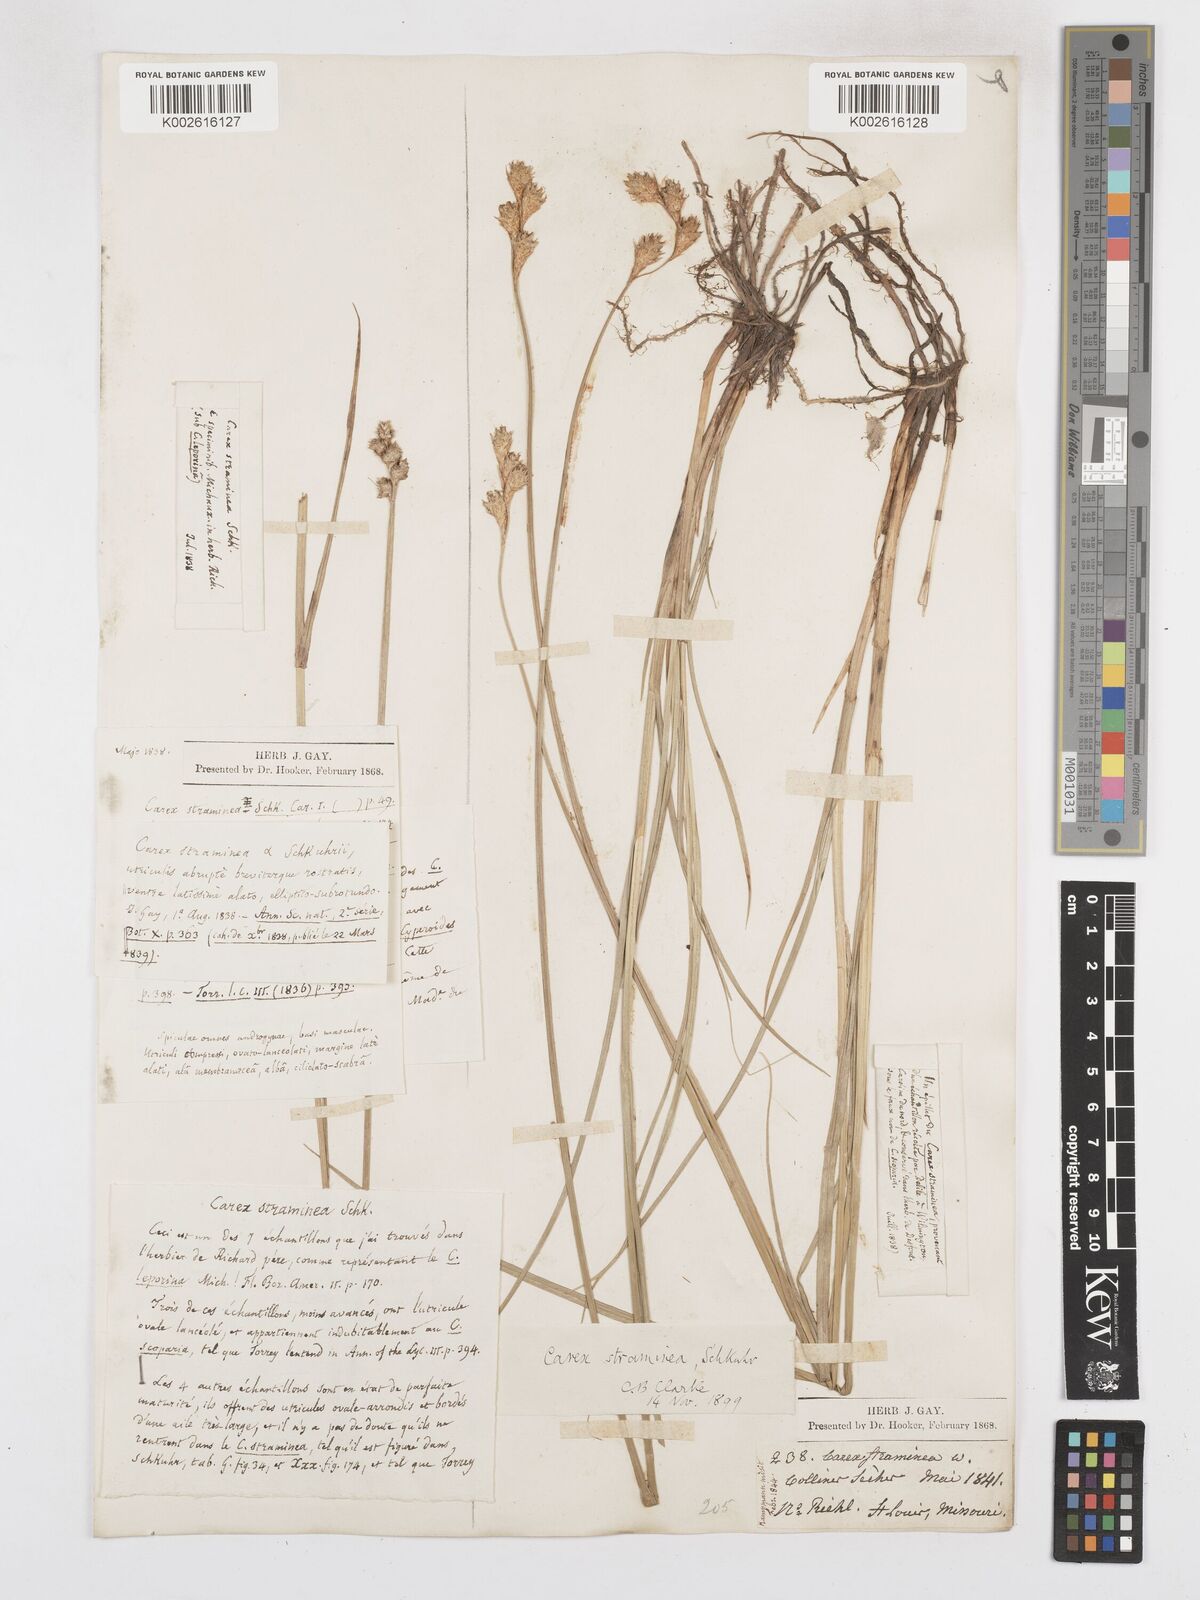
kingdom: Plantae
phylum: Tracheophyta
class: Liliopsida
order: Poales
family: Cyperaceae
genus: Carex
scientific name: Carex brevior
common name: Brevior sedge
